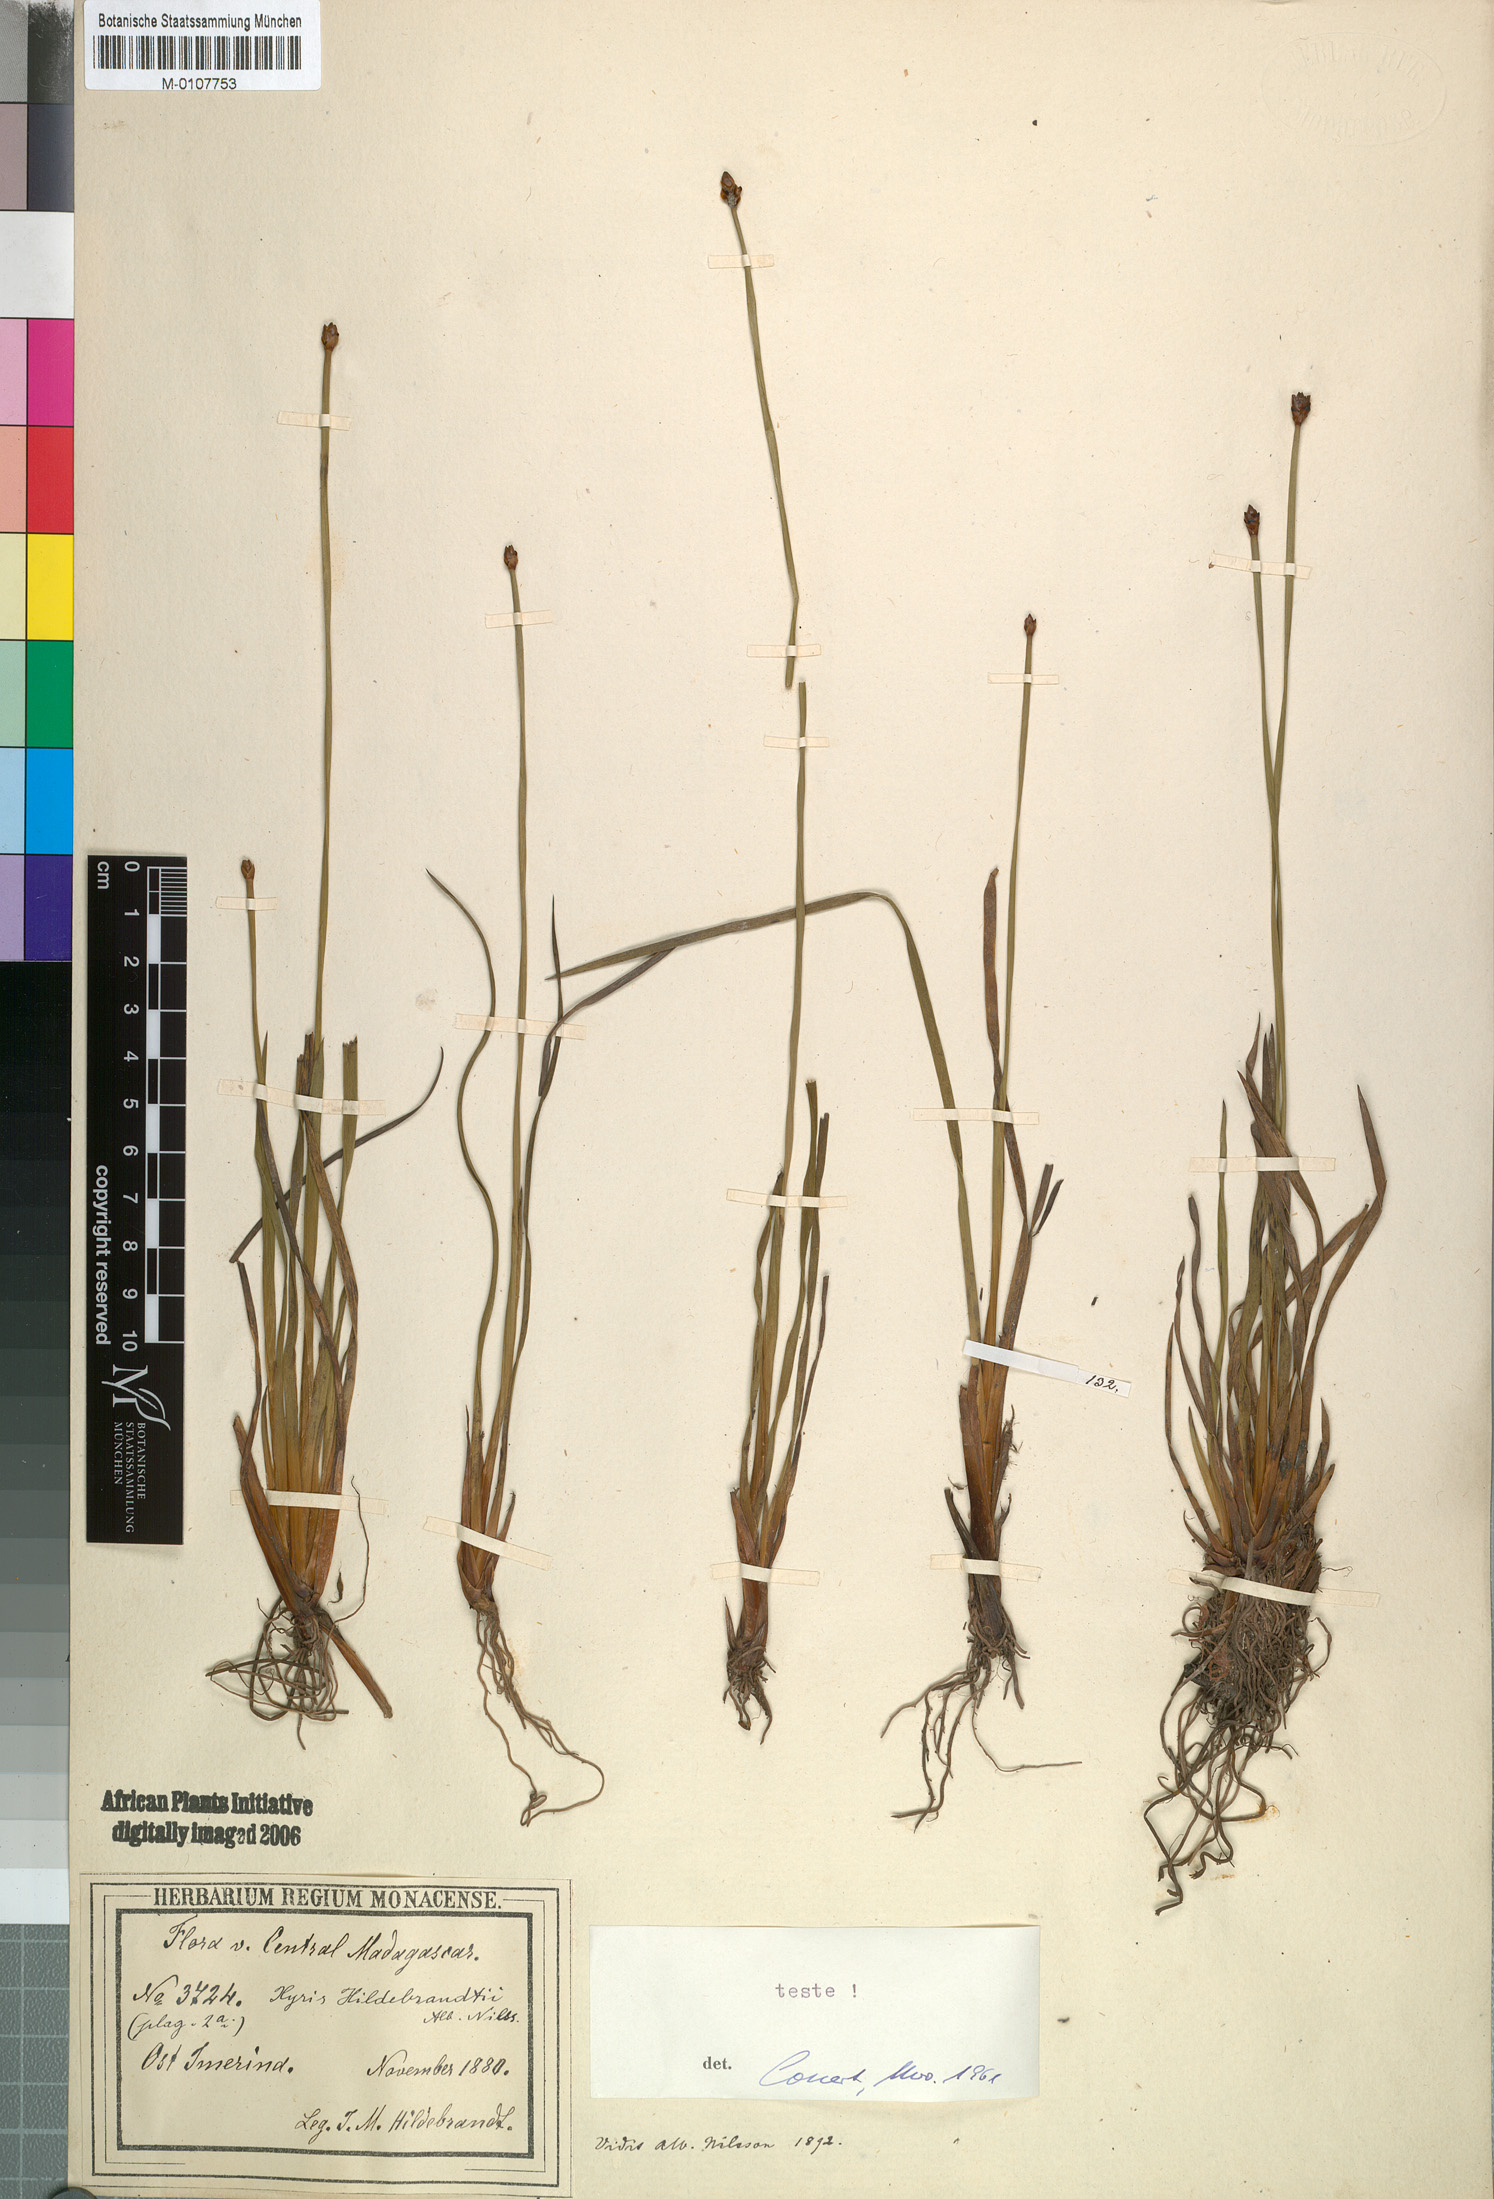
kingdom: Plantae
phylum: Tracheophyta
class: Liliopsida
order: Poales
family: Xyridaceae
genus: Xyris
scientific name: Xyris congensis
